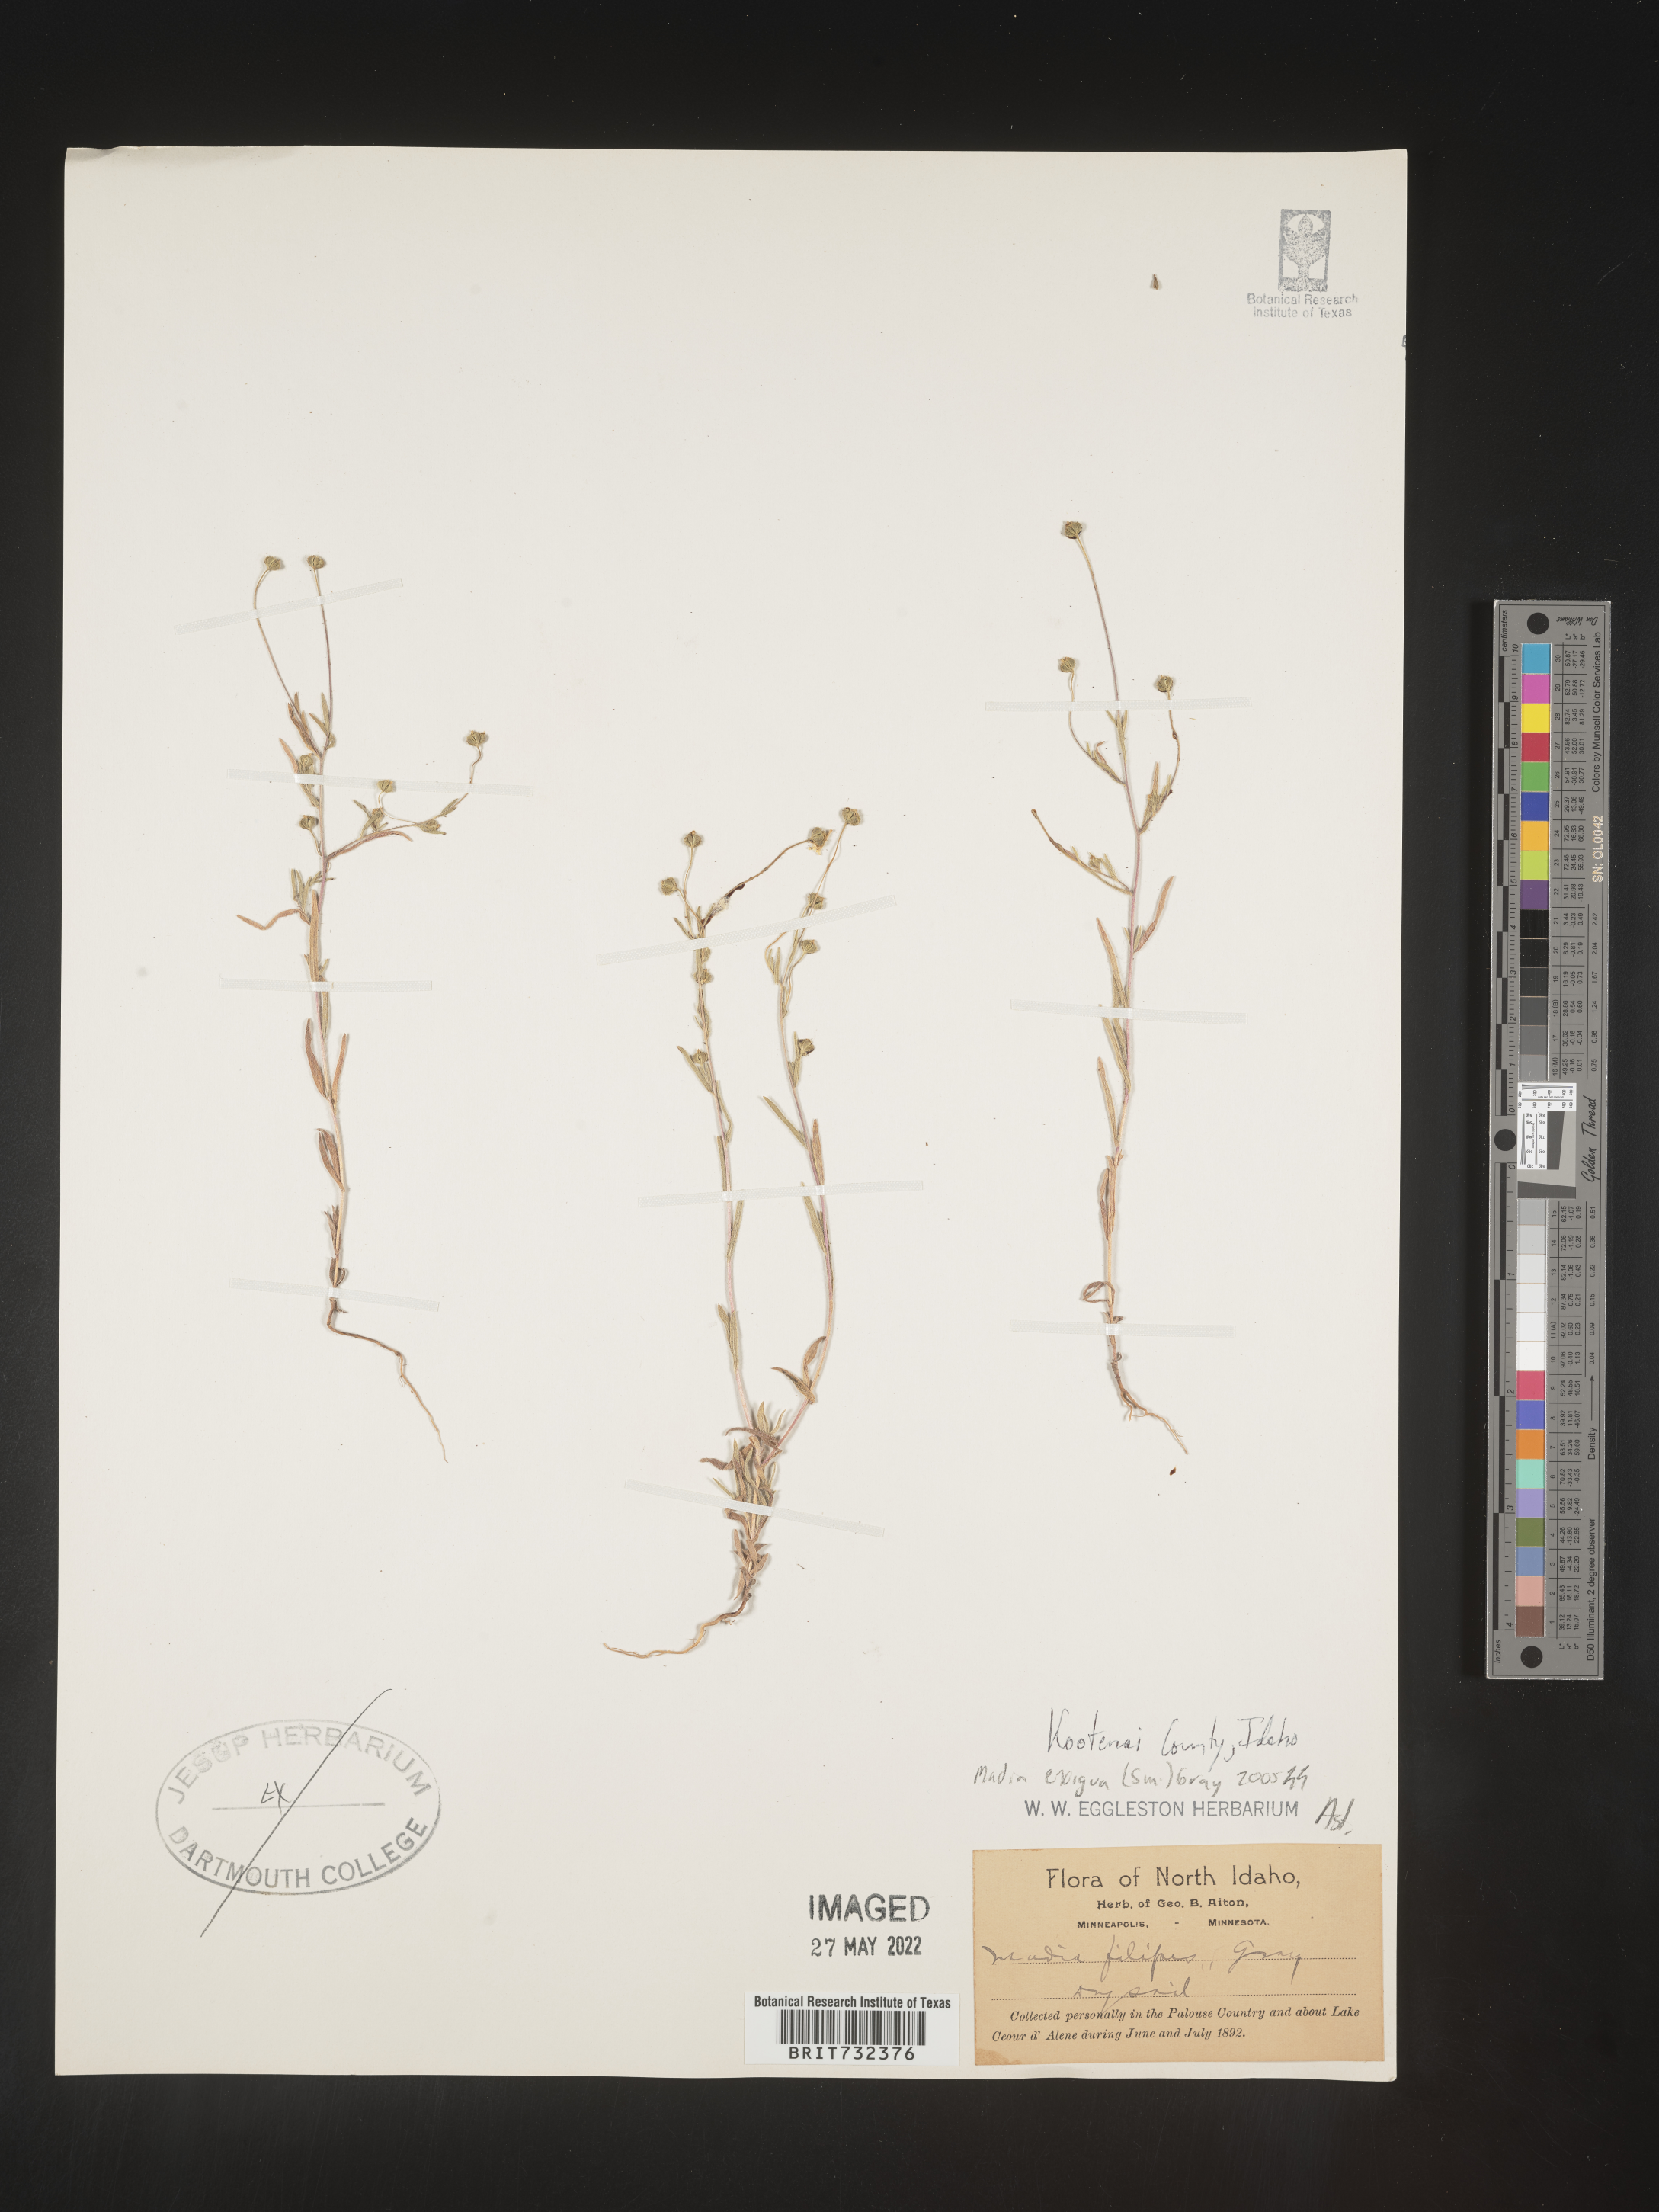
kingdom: Plantae
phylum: Tracheophyta
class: Magnoliopsida
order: Asterales
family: Asteraceae
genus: Madia
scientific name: Madia
